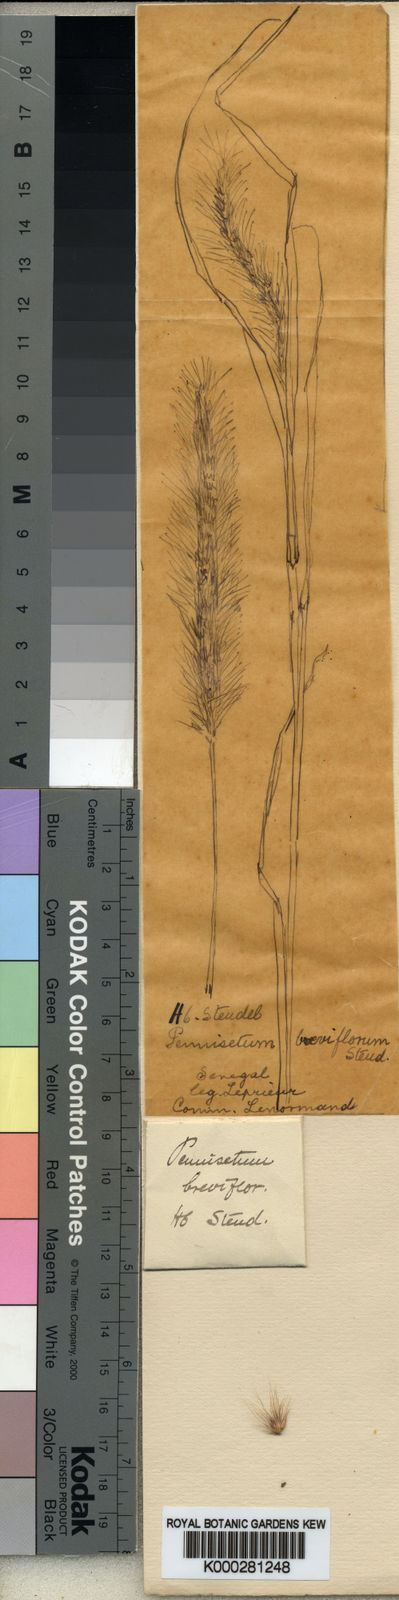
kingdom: Plantae
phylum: Tracheophyta
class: Liliopsida
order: Poales
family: Poaceae
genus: Cenchrus
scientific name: Cenchrus prieurii
